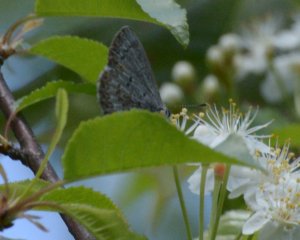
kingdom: Animalia
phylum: Arthropoda
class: Insecta
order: Lepidoptera
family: Lycaenidae
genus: Celastrina
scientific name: Celastrina lucia
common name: Northern Spring Azure
